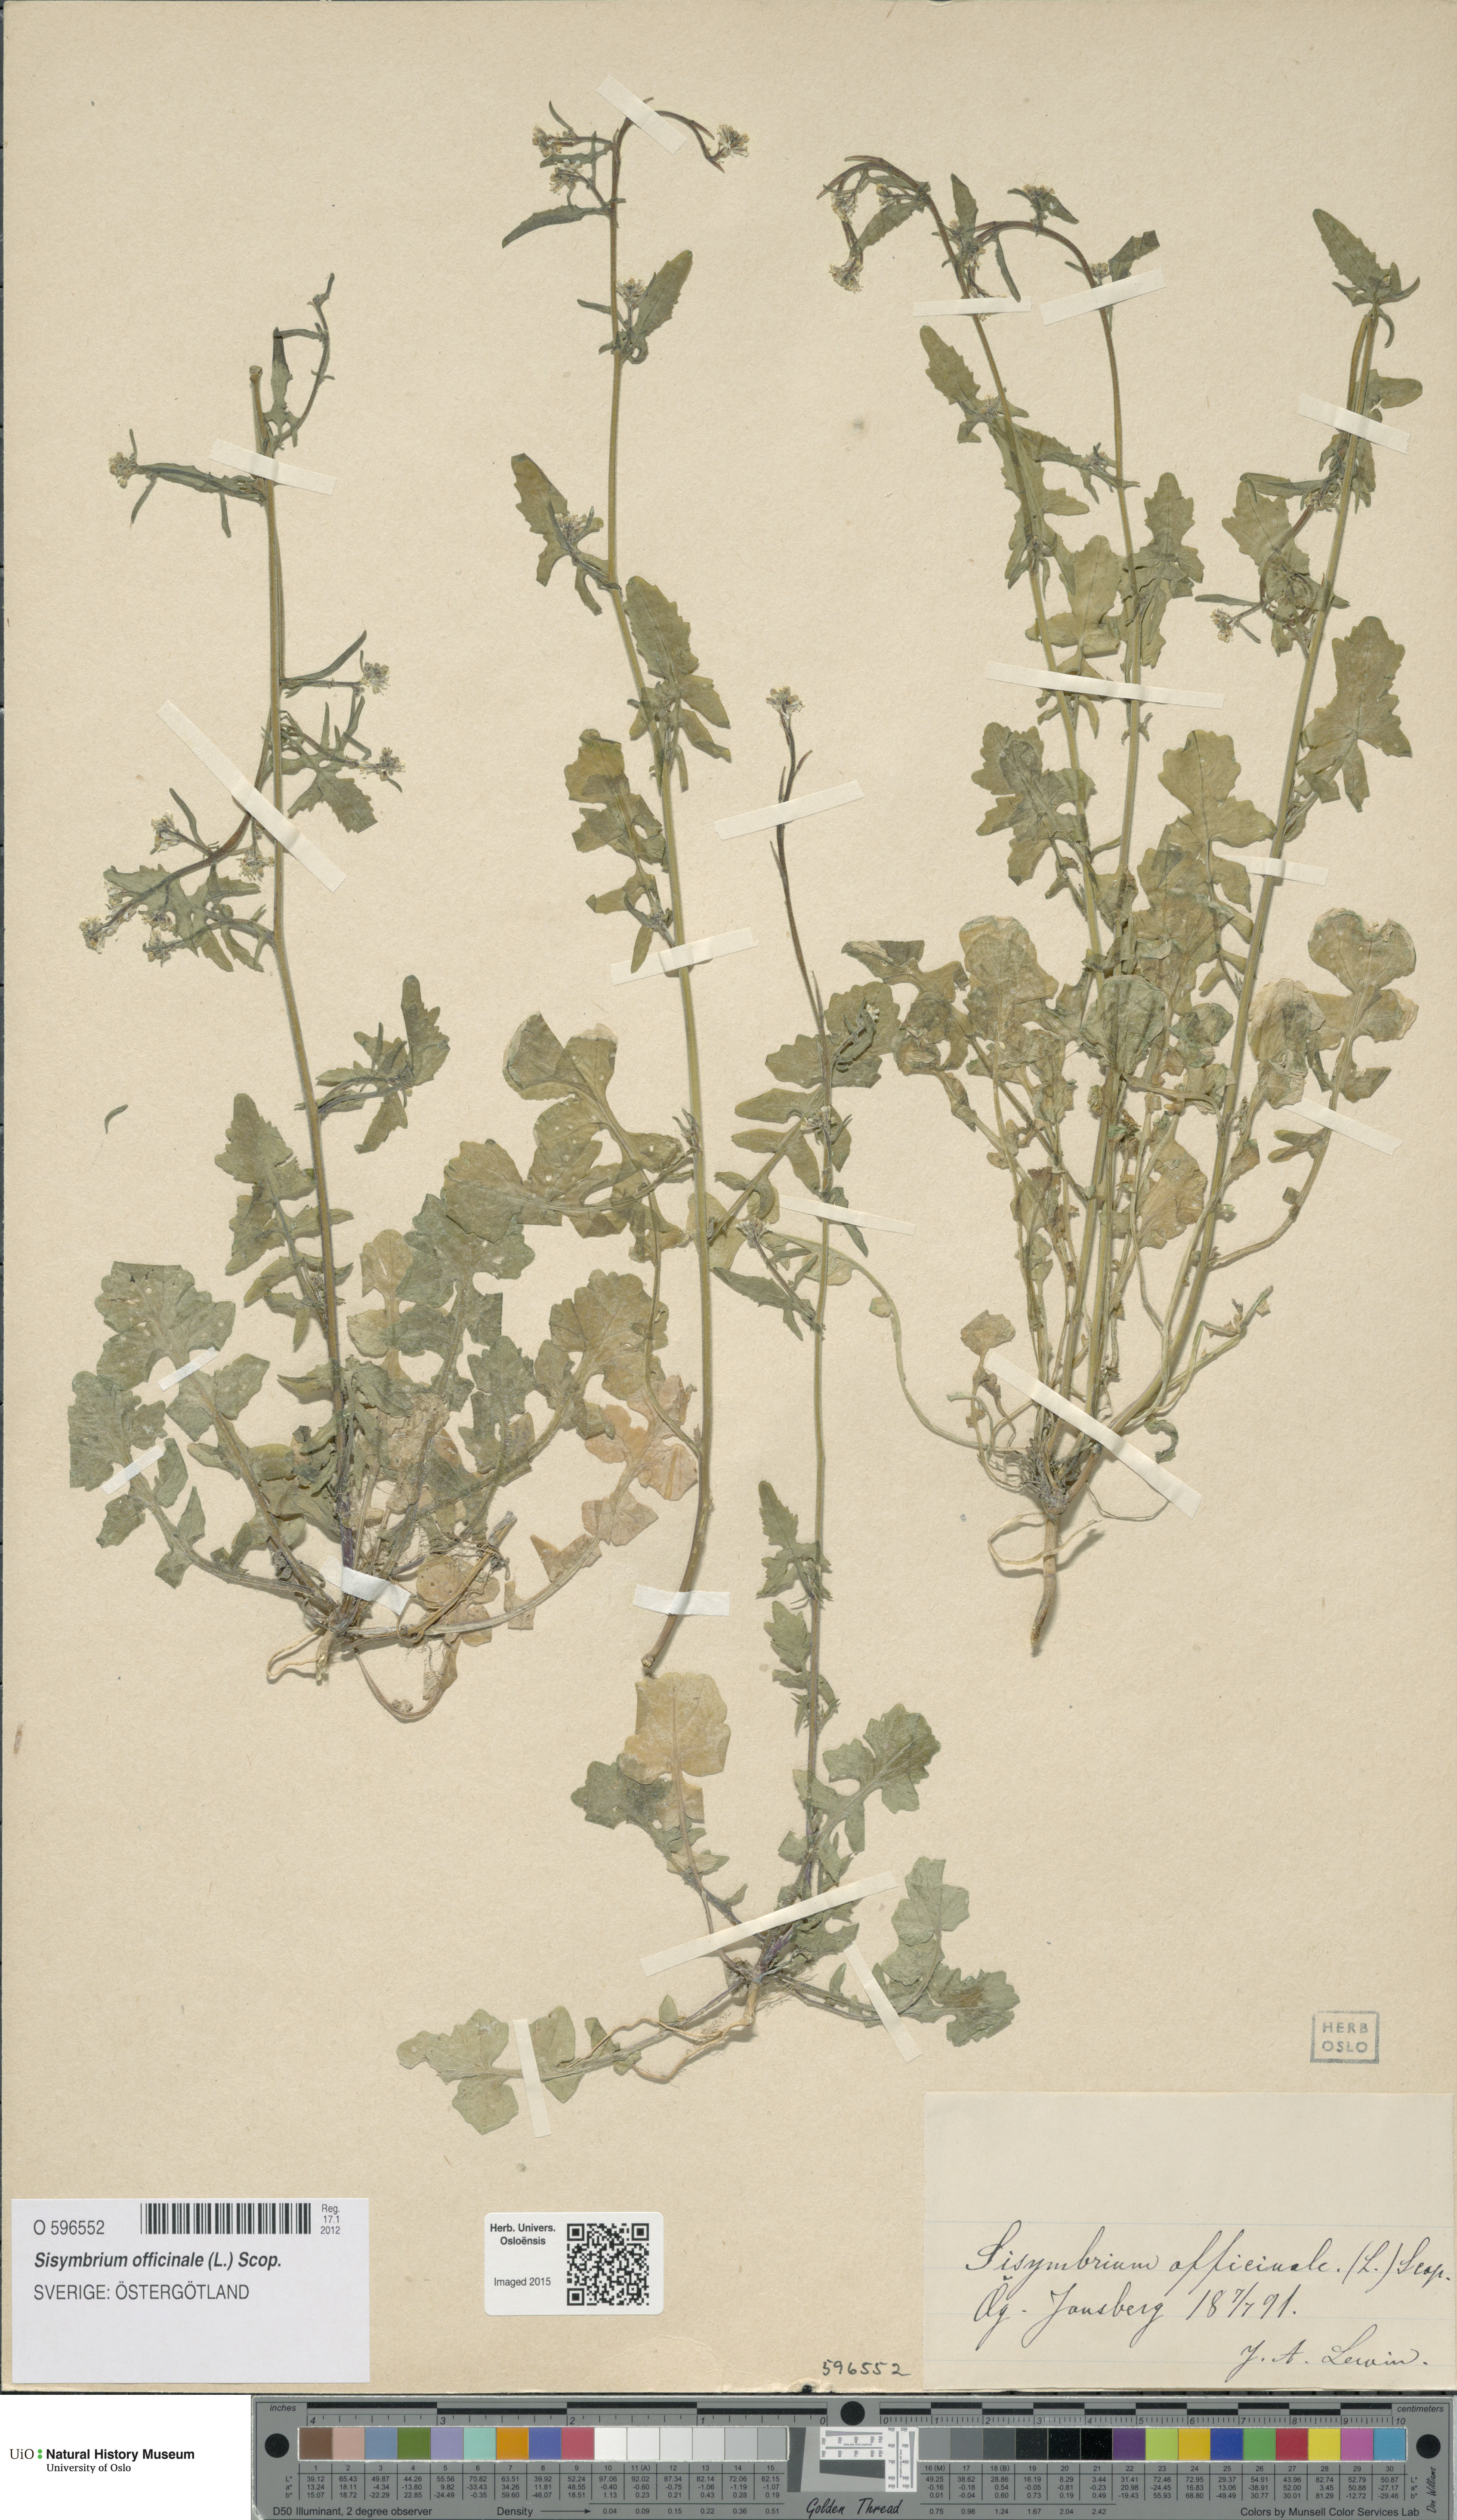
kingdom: Plantae
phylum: Tracheophyta
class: Magnoliopsida
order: Brassicales
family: Brassicaceae
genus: Sisymbrium
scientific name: Sisymbrium officinale
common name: Hedge mustard
